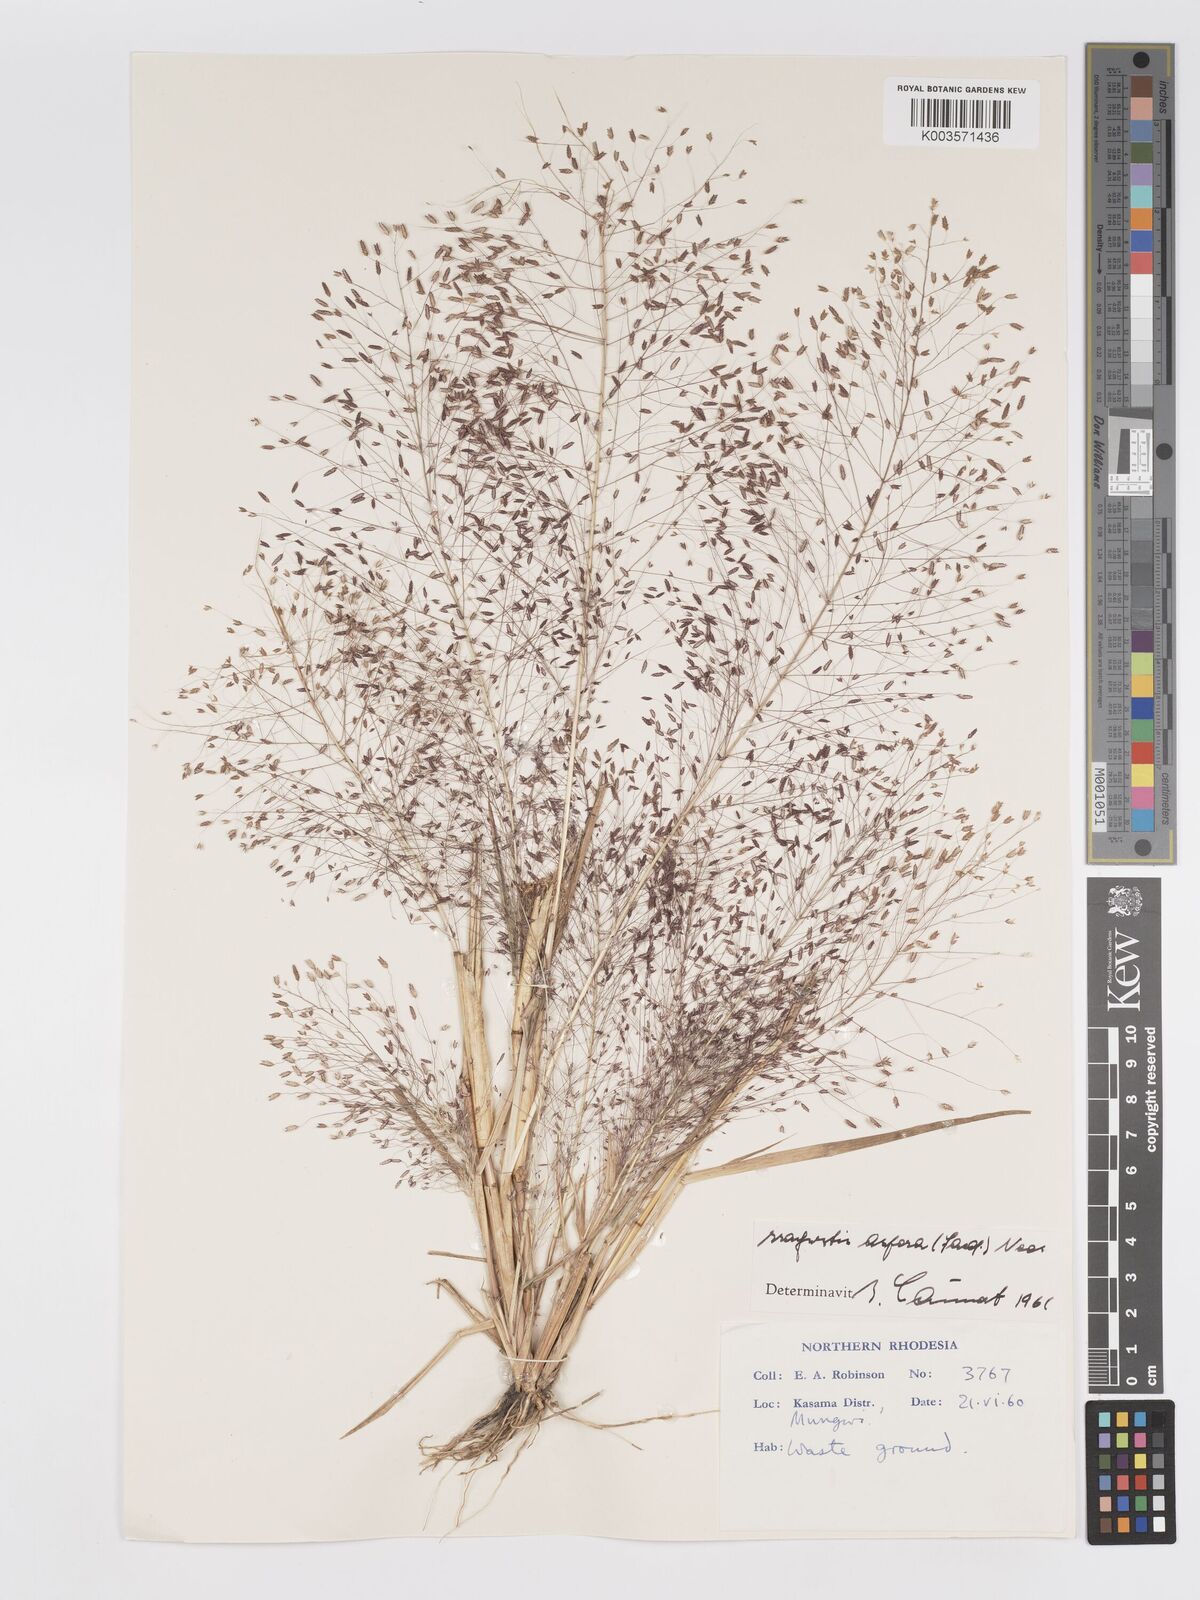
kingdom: Plantae
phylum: Tracheophyta
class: Liliopsida
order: Poales
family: Poaceae
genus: Eragrostis
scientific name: Eragrostis aspera
